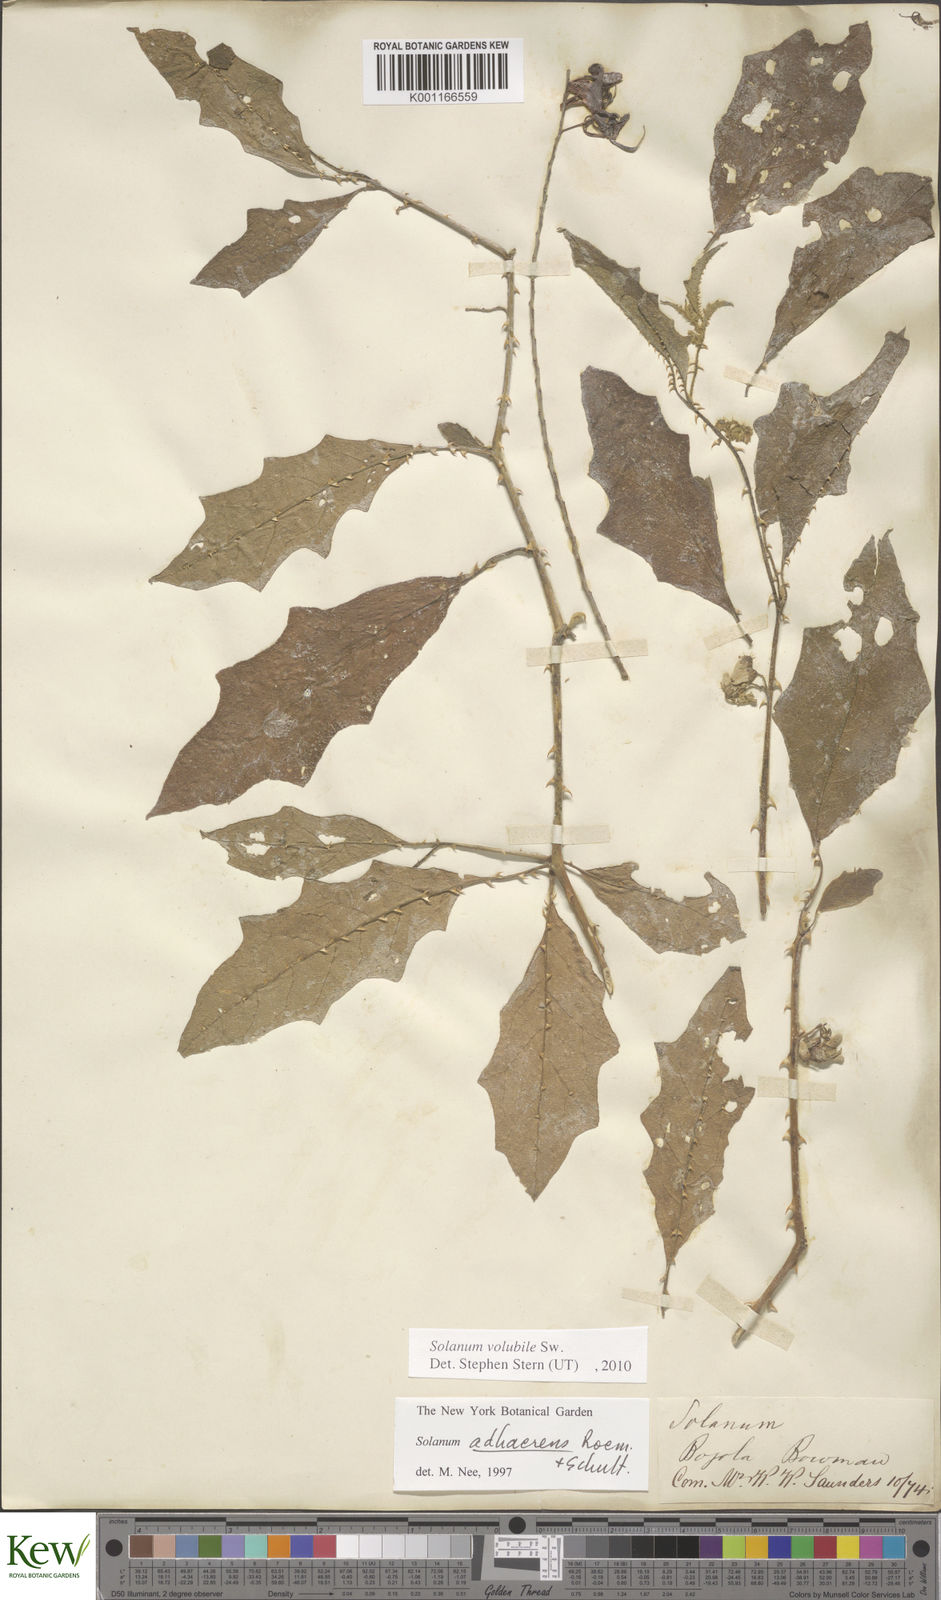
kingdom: Plantae
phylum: Tracheophyta
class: Magnoliopsida
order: Solanales
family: Solanaceae
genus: Solanum
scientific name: Solanum volubile
